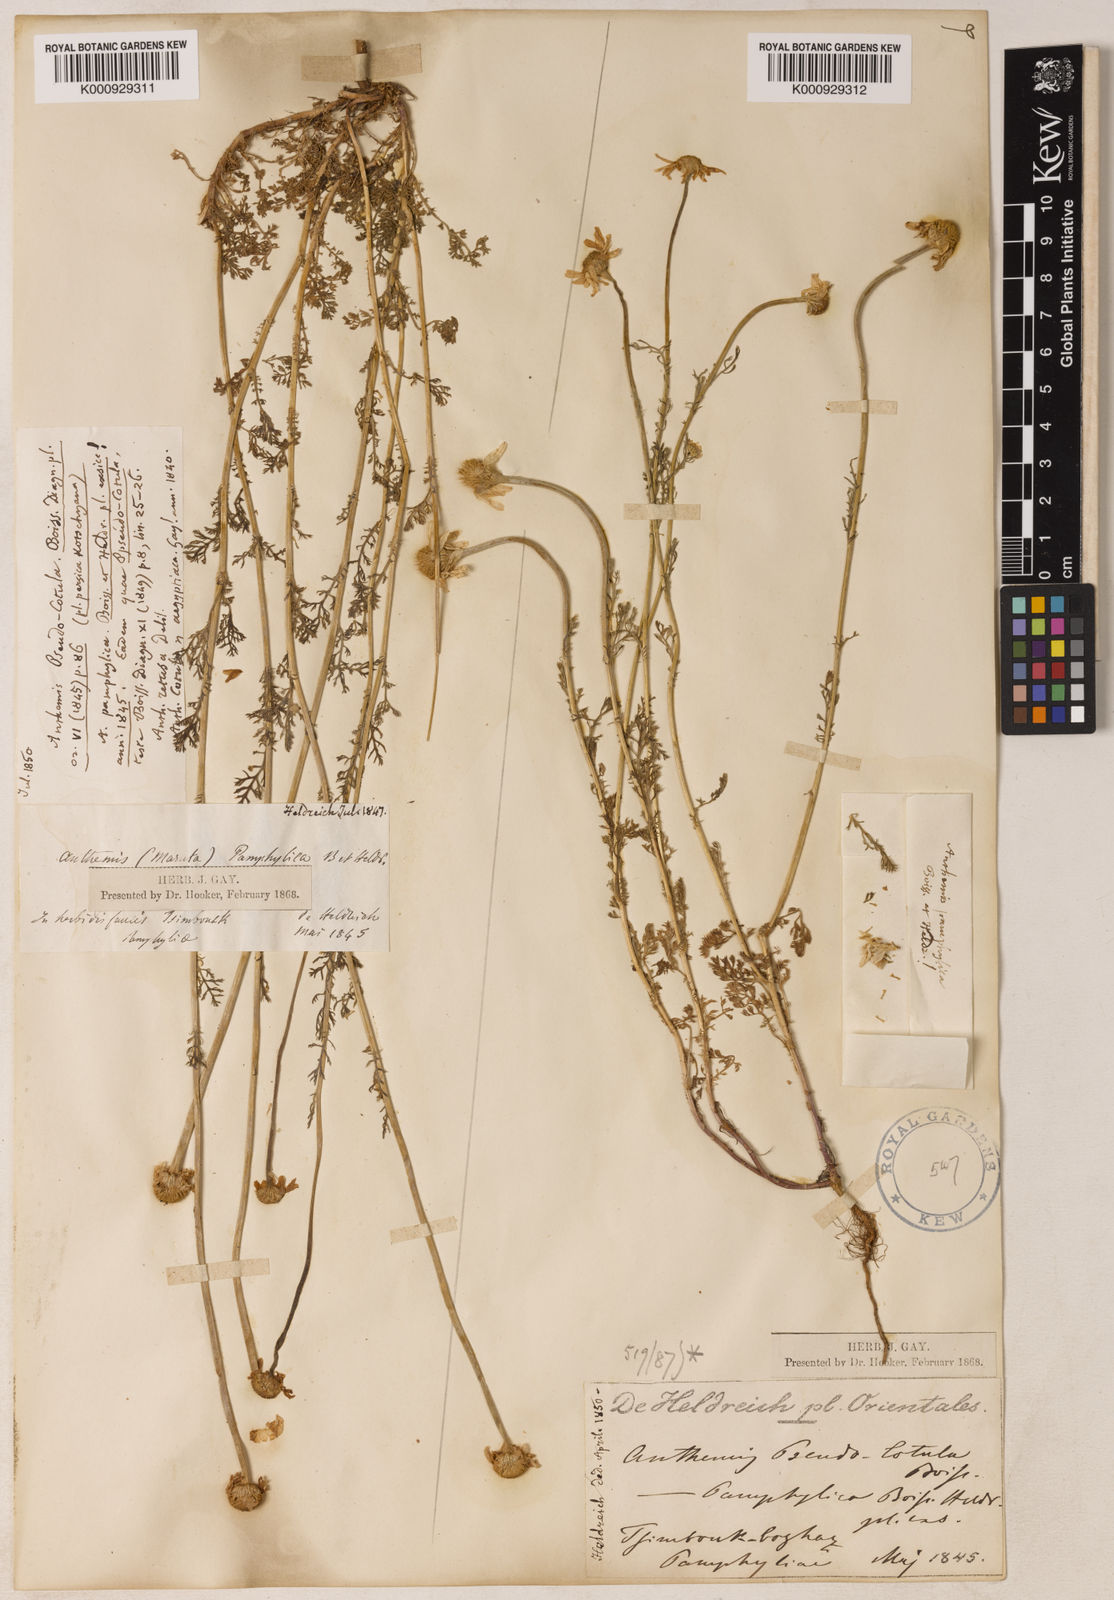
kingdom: Plantae
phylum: Tracheophyta
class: Magnoliopsida
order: Asterales
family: Asteraceae
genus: Anthemis
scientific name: Anthemis pseudocotula
